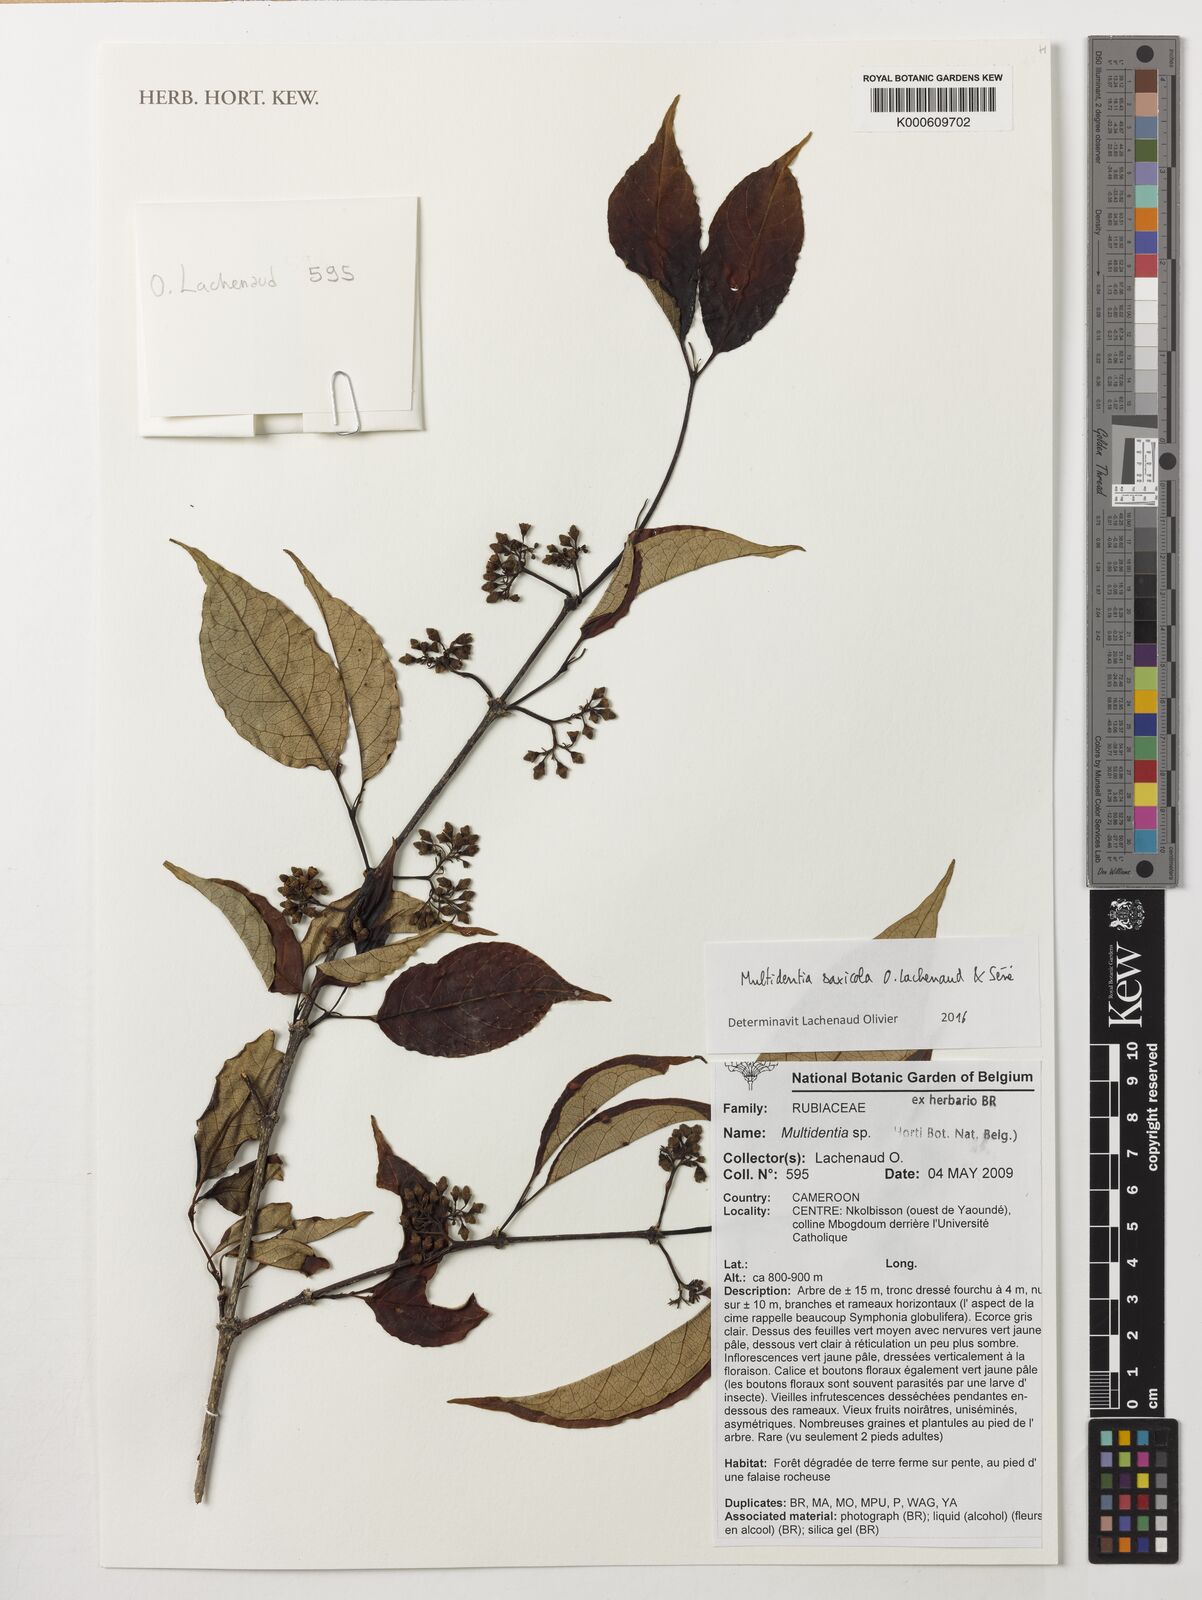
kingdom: Plantae
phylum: Tracheophyta
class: Magnoliopsida
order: Gentianales
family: Rubiaceae
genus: Multidentia
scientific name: Multidentia saxicola
